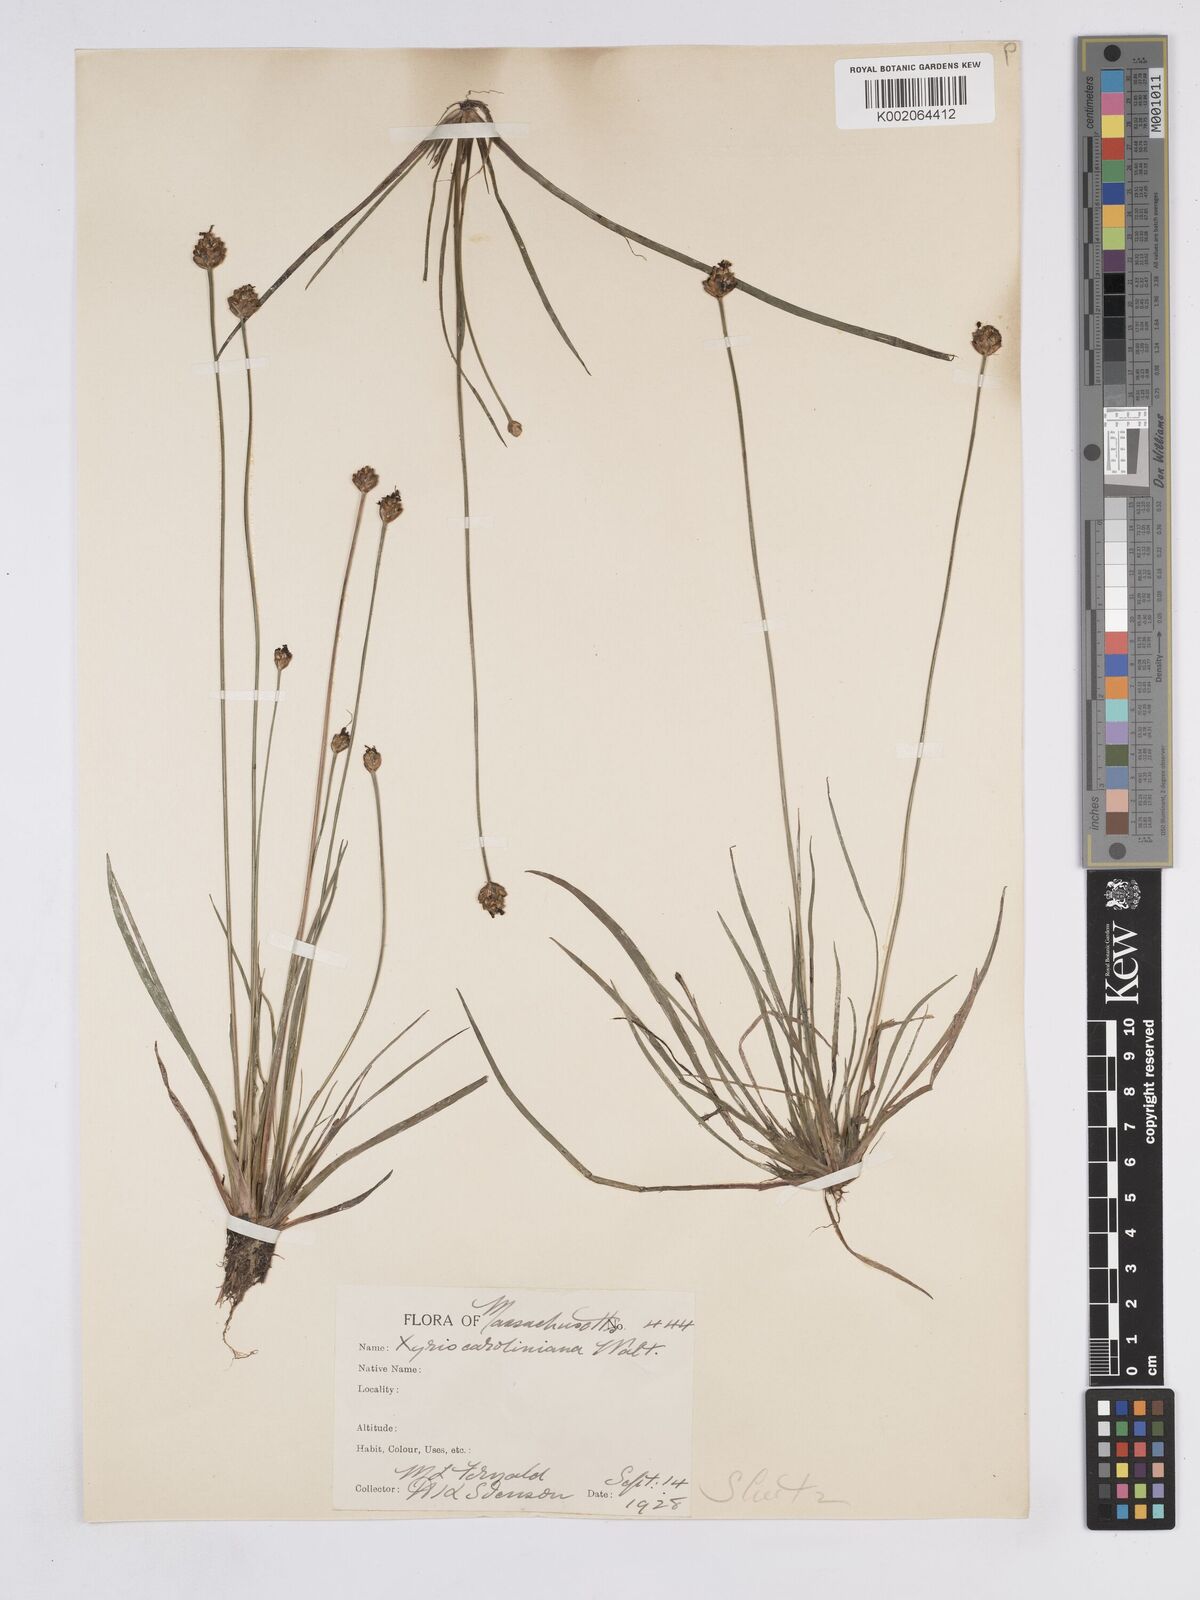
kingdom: Plantae
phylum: Tracheophyta
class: Liliopsida
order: Poales
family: Xyridaceae
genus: Xyris
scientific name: Xyris caroliniana
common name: Carolina yellow-eyed-grass
